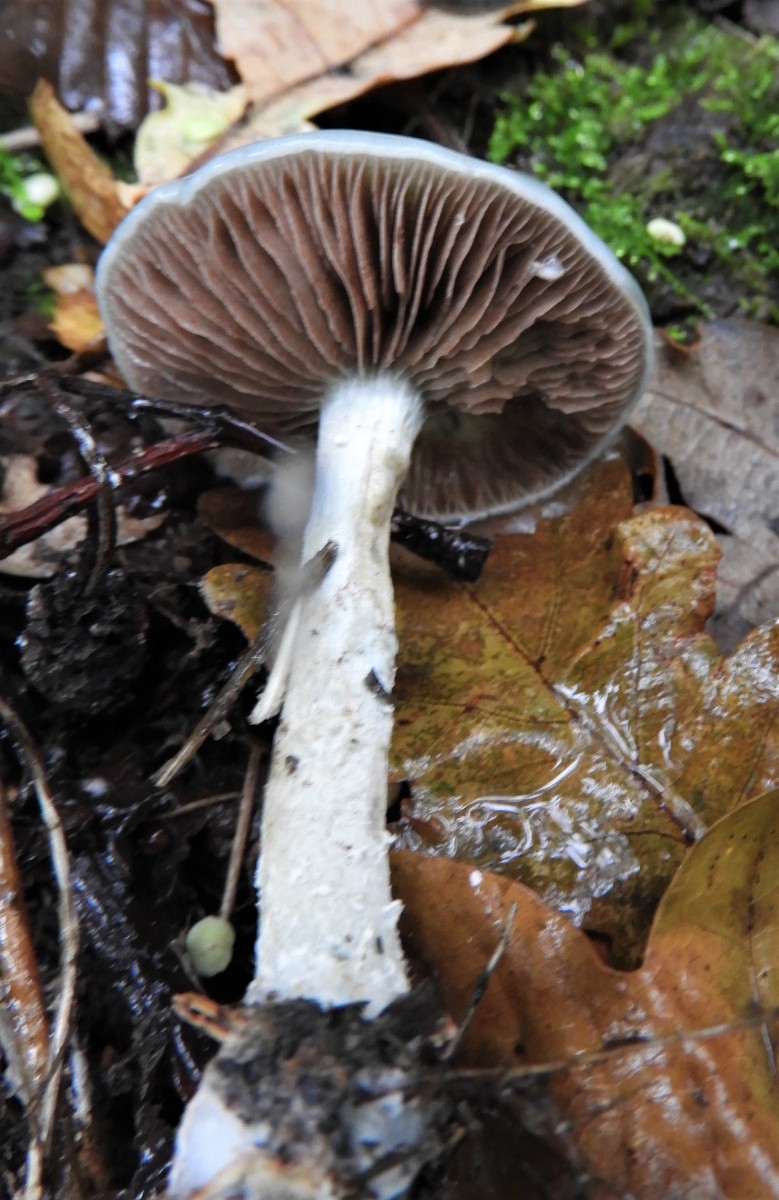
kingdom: Fungi
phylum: Basidiomycota
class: Agaricomycetes
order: Agaricales
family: Strophariaceae
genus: Stropharia
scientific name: Stropharia cyanea
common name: blågrøn bredblad
